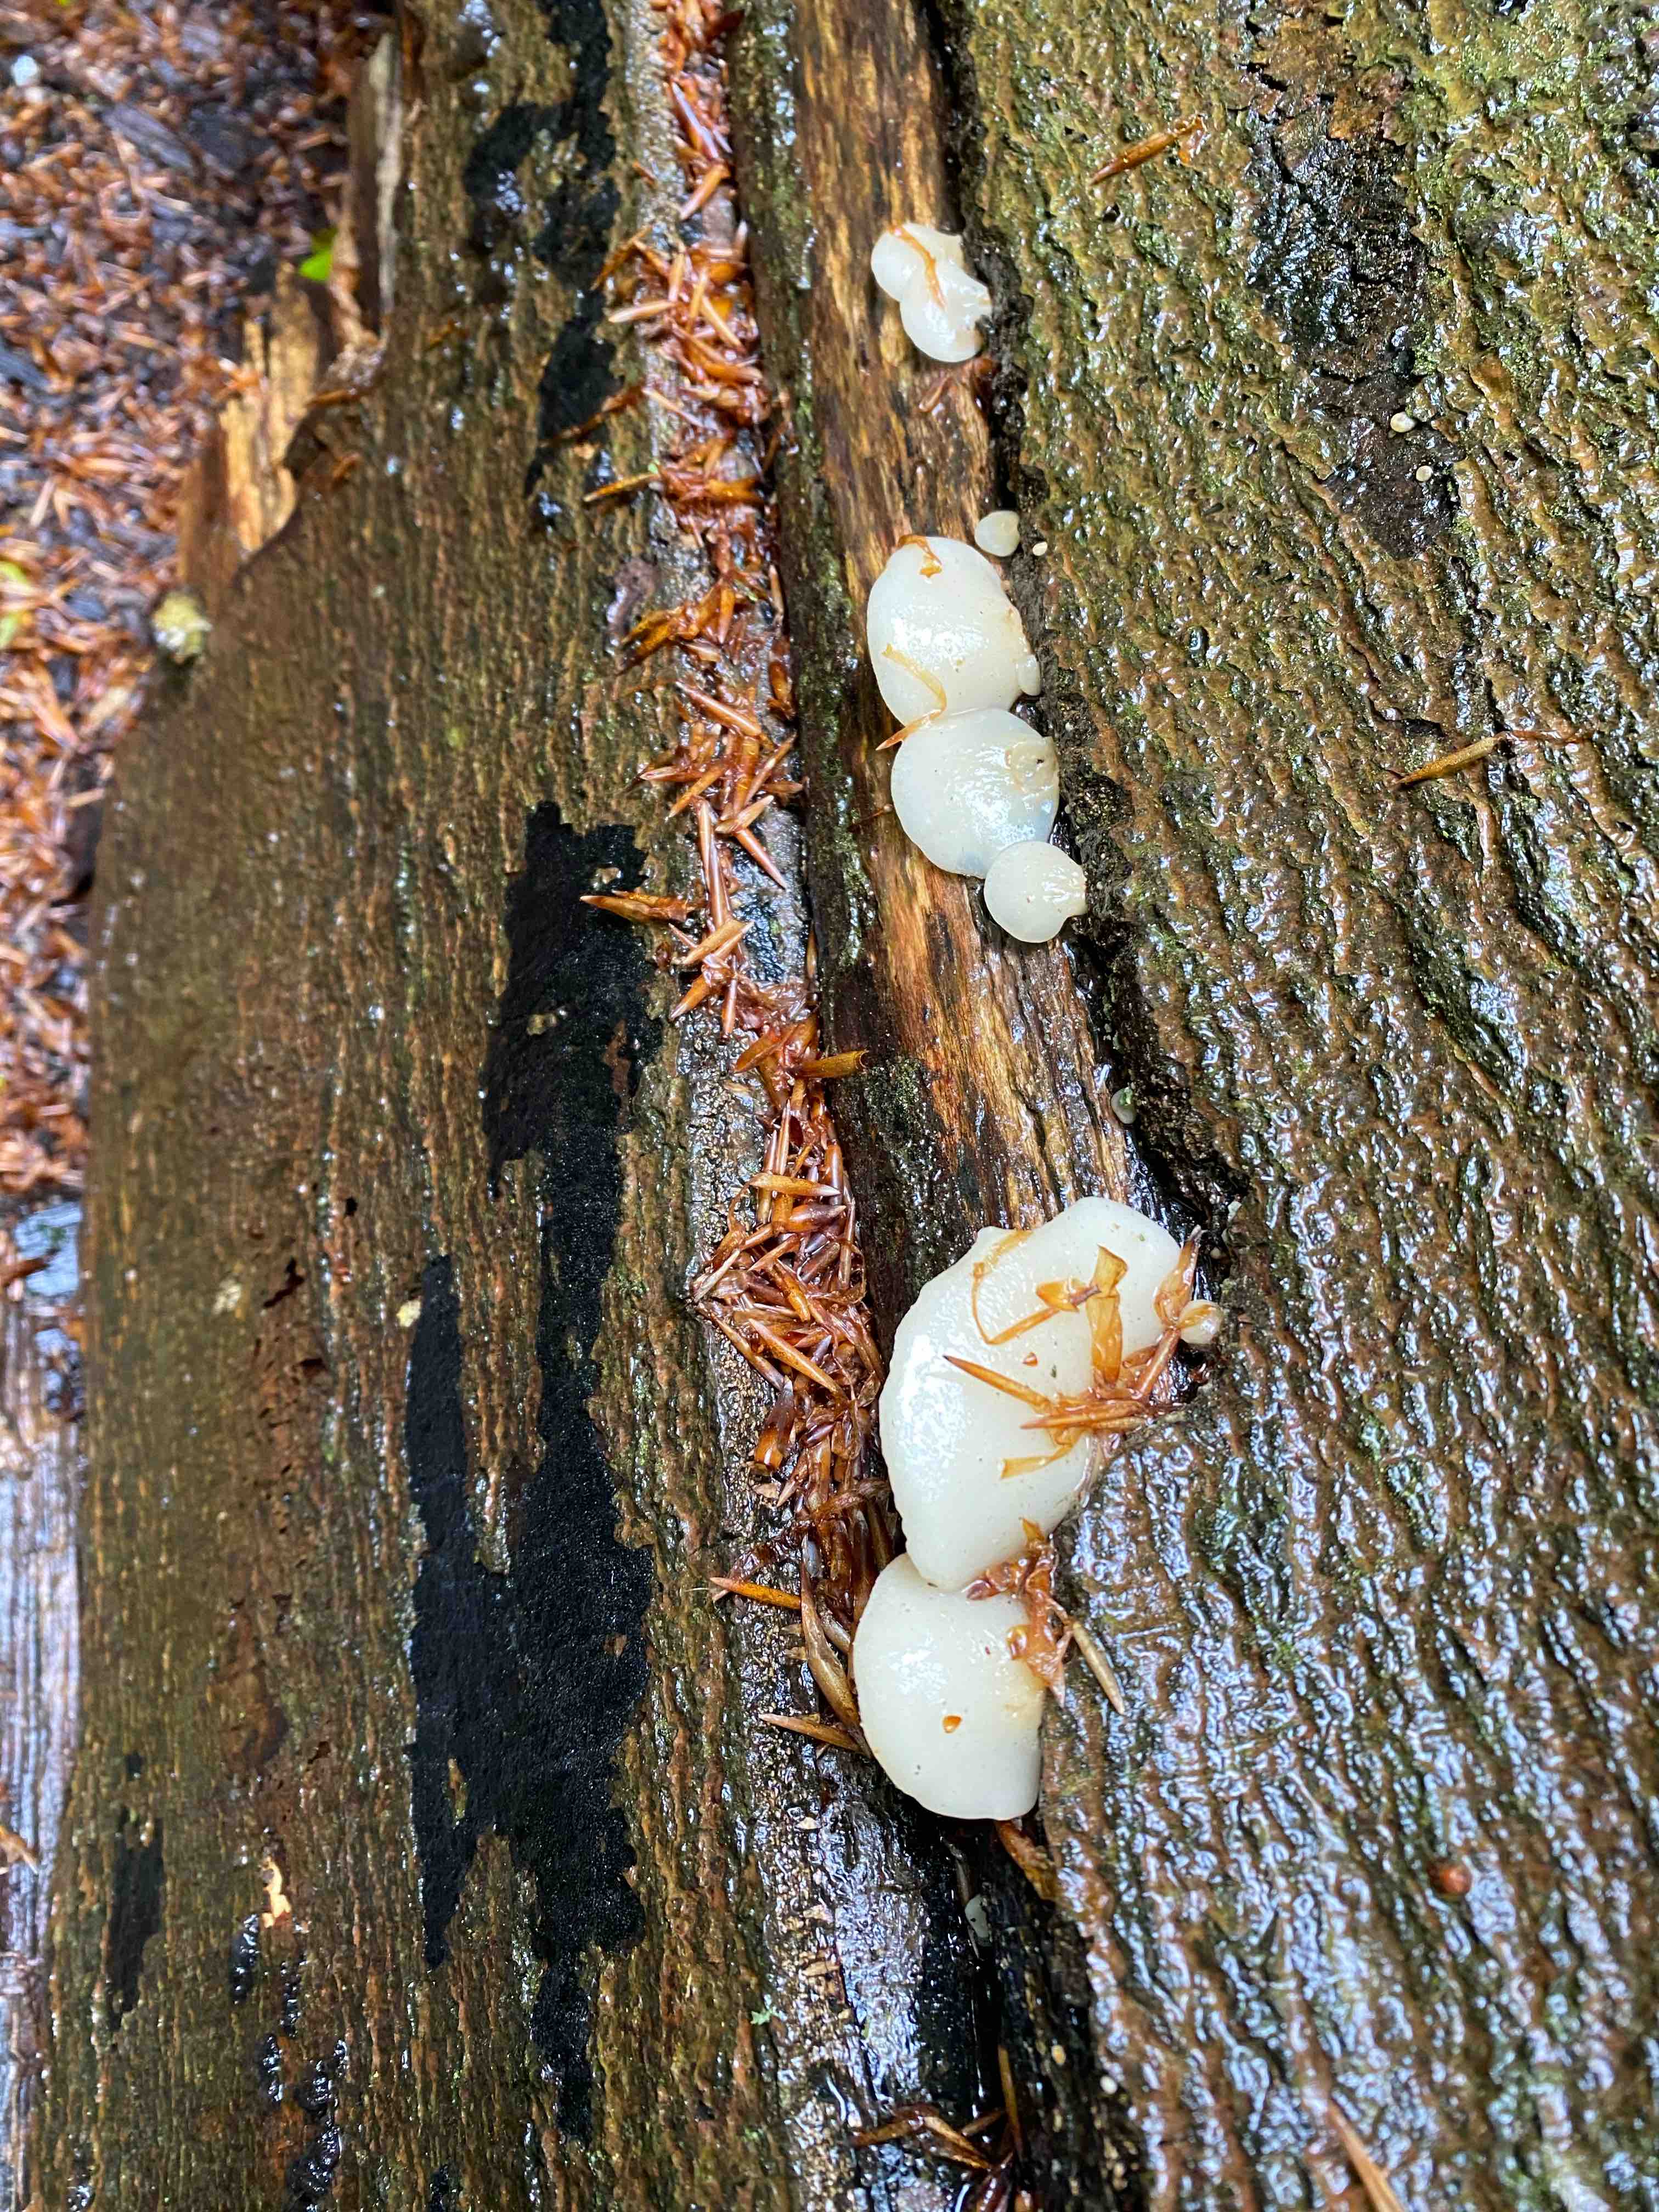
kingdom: Fungi
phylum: Basidiomycota
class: Agaricomycetes
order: Agaricales
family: Crepidotaceae
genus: Crepidotus
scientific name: Crepidotus mollis
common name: blød muslingesvamp
